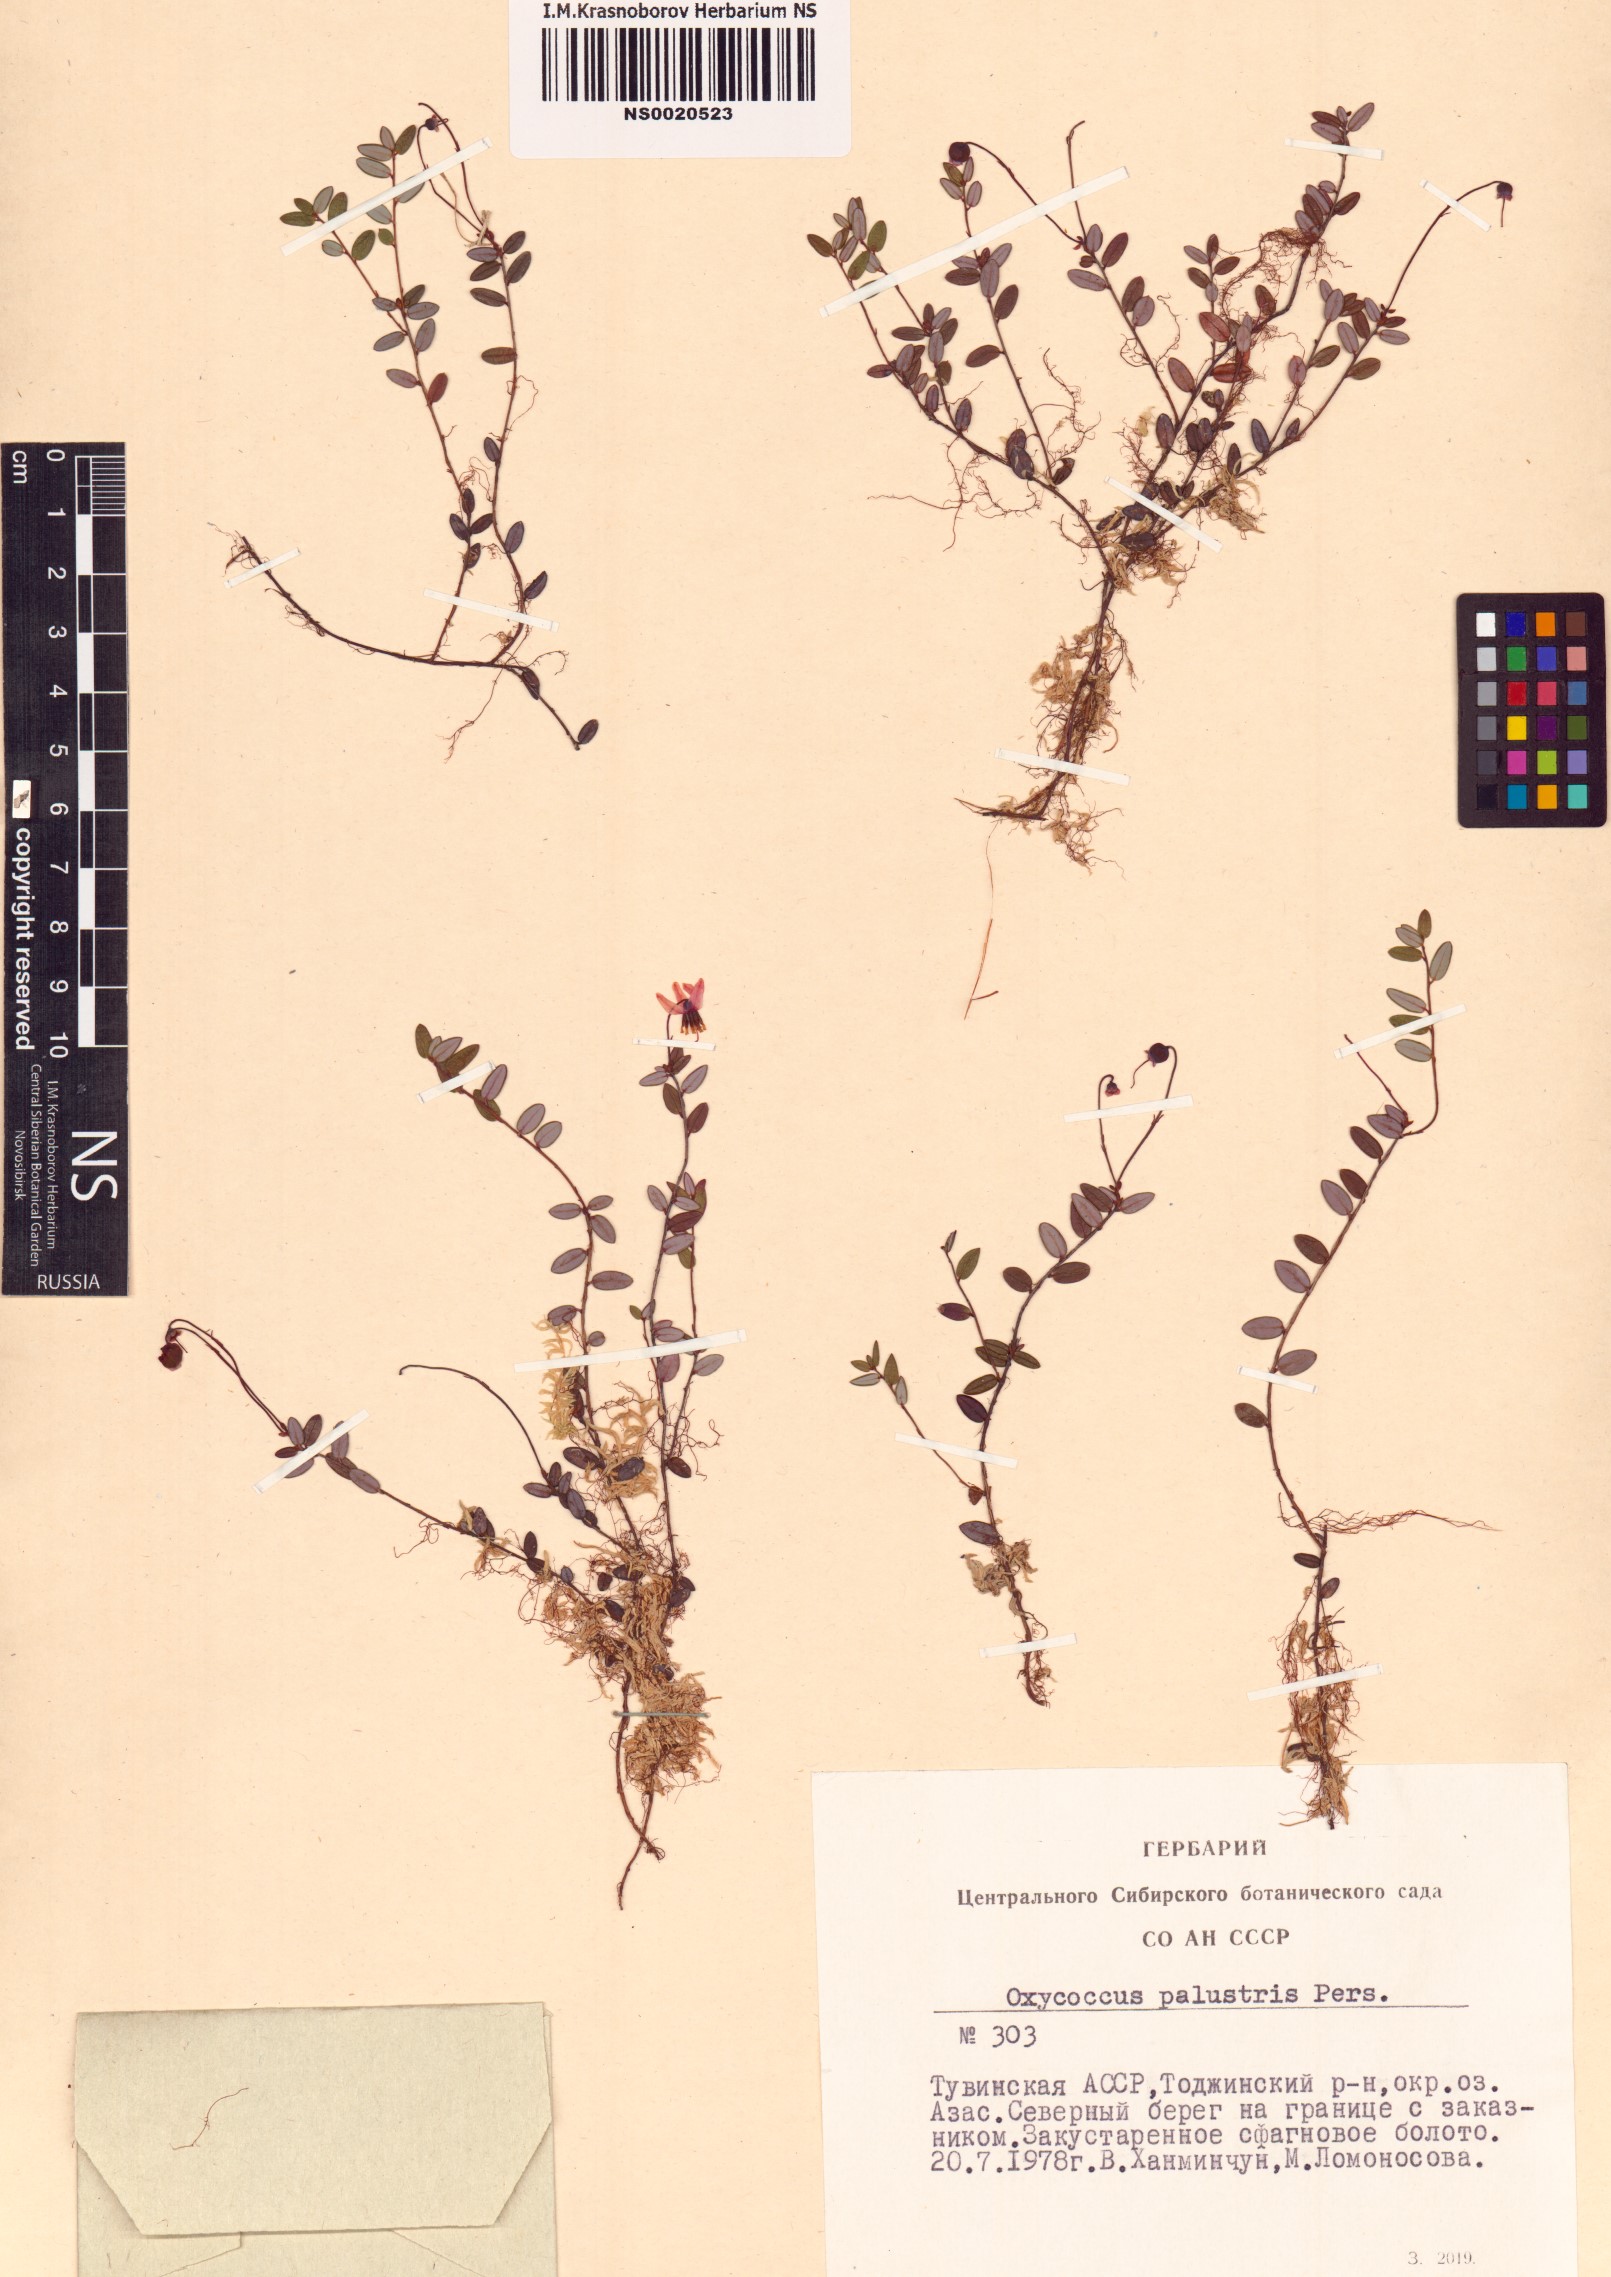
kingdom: Plantae
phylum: Tracheophyta
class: Magnoliopsida
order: Ericales
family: Ericaceae
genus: Vaccinium
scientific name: Vaccinium oxycoccos
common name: Cranberry
